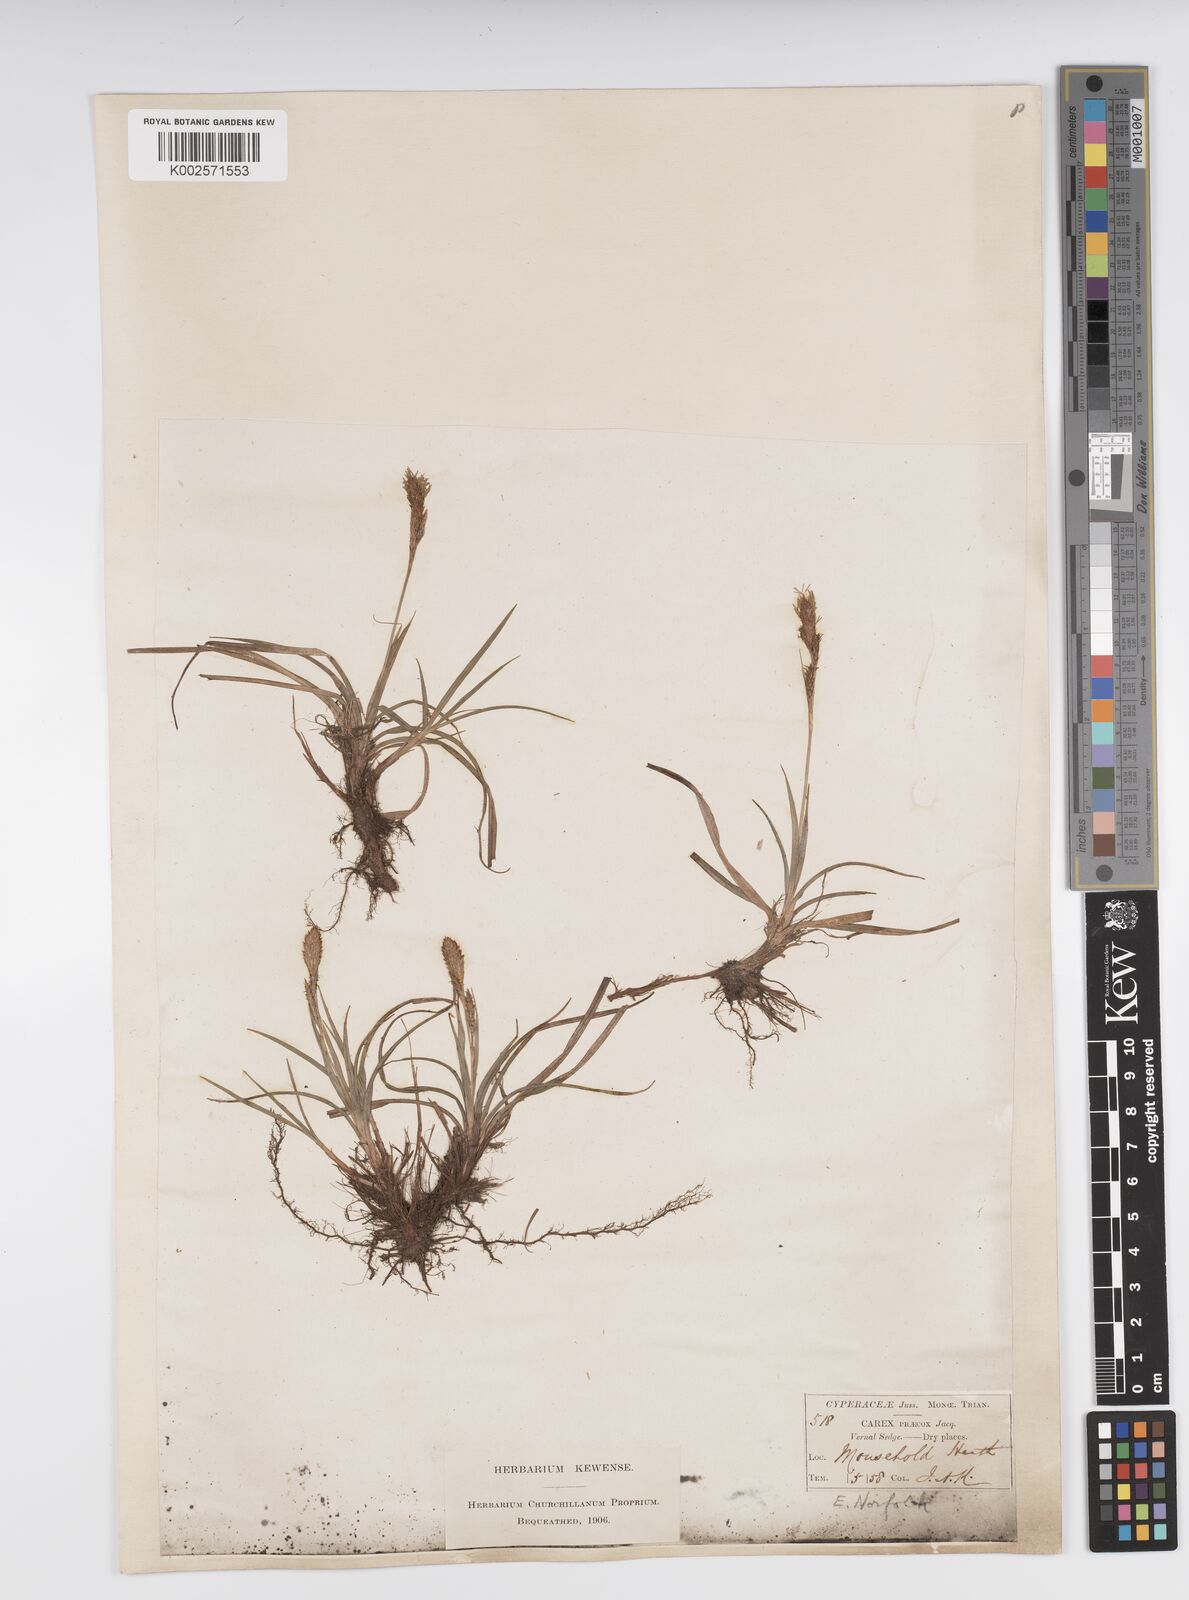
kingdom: Plantae
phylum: Tracheophyta
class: Liliopsida
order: Poales
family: Cyperaceae
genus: Carex
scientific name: Carex caryophyllea
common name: Spring sedge
